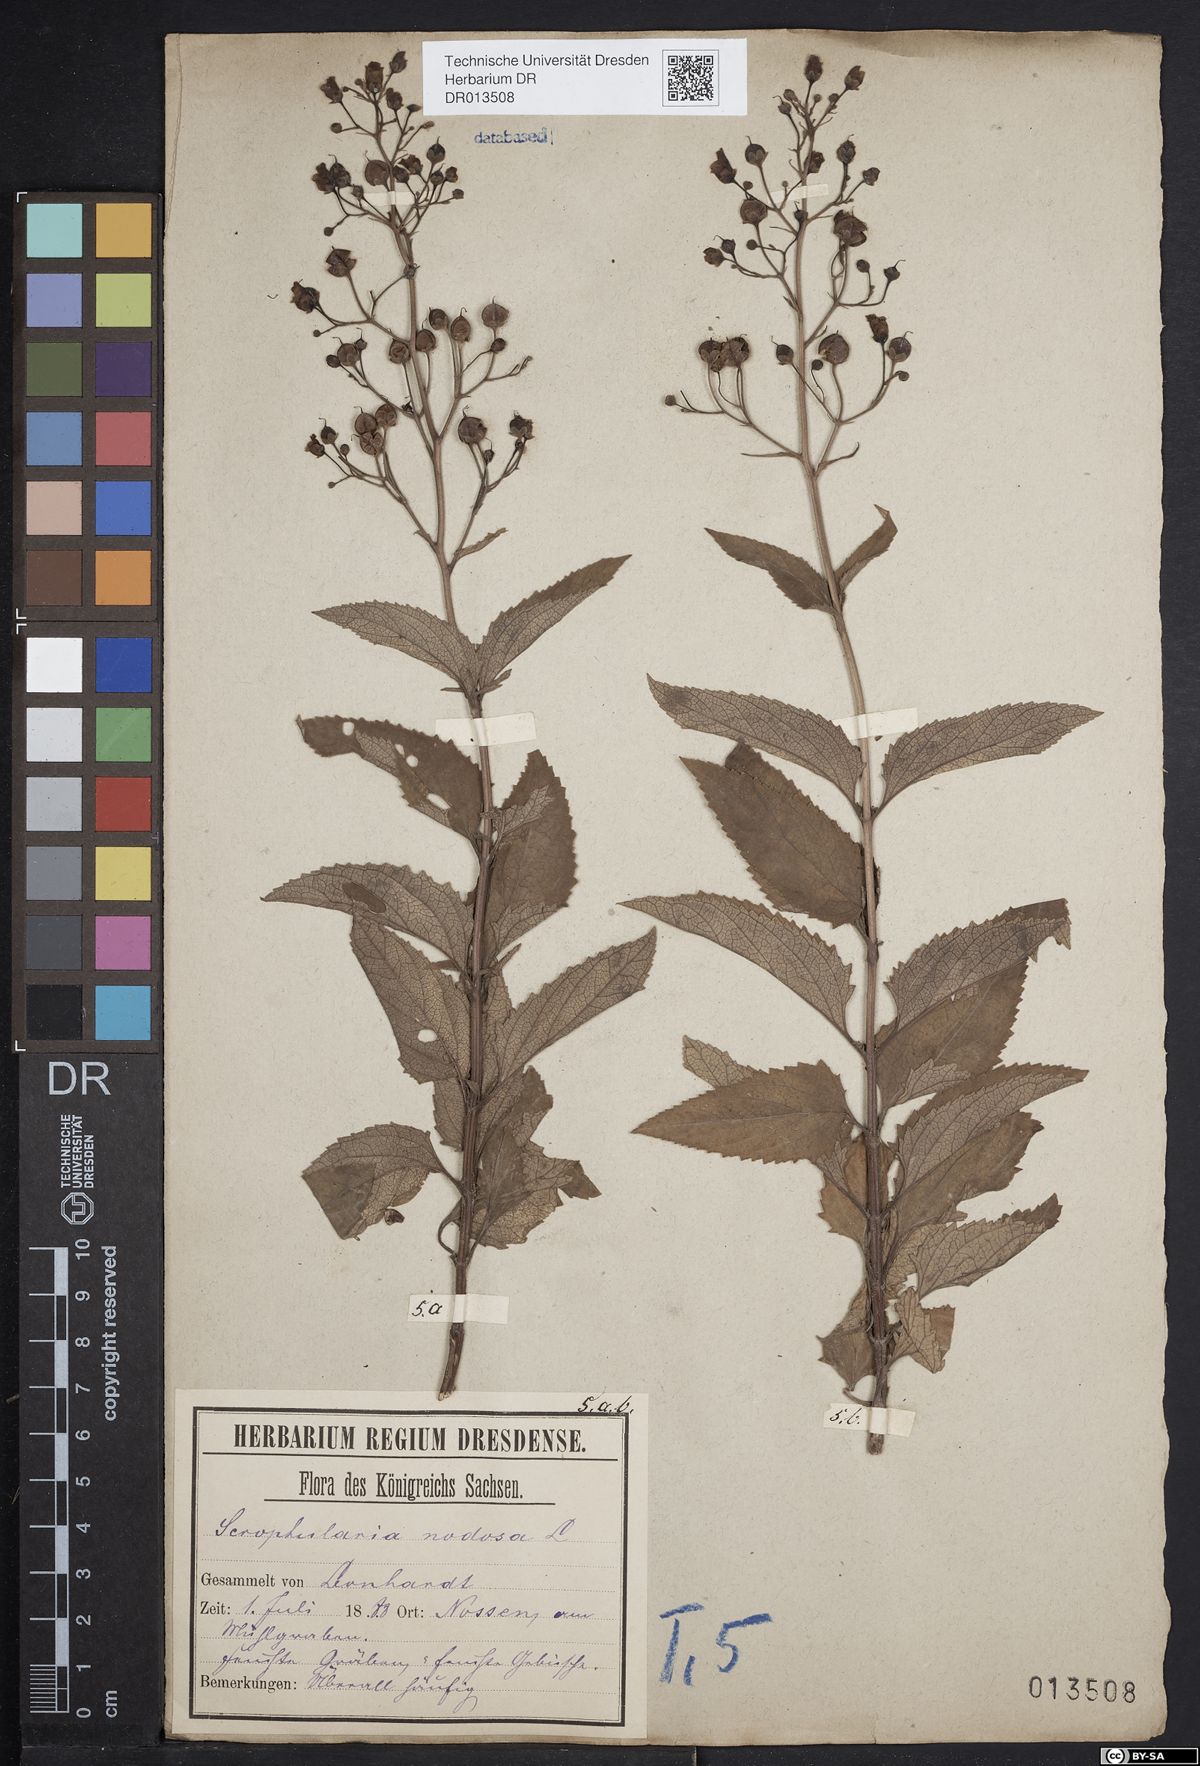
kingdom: Plantae
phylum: Tracheophyta
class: Magnoliopsida
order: Lamiales
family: Scrophulariaceae
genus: Scrophularia
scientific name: Scrophularia nodosa
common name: Common figwort
